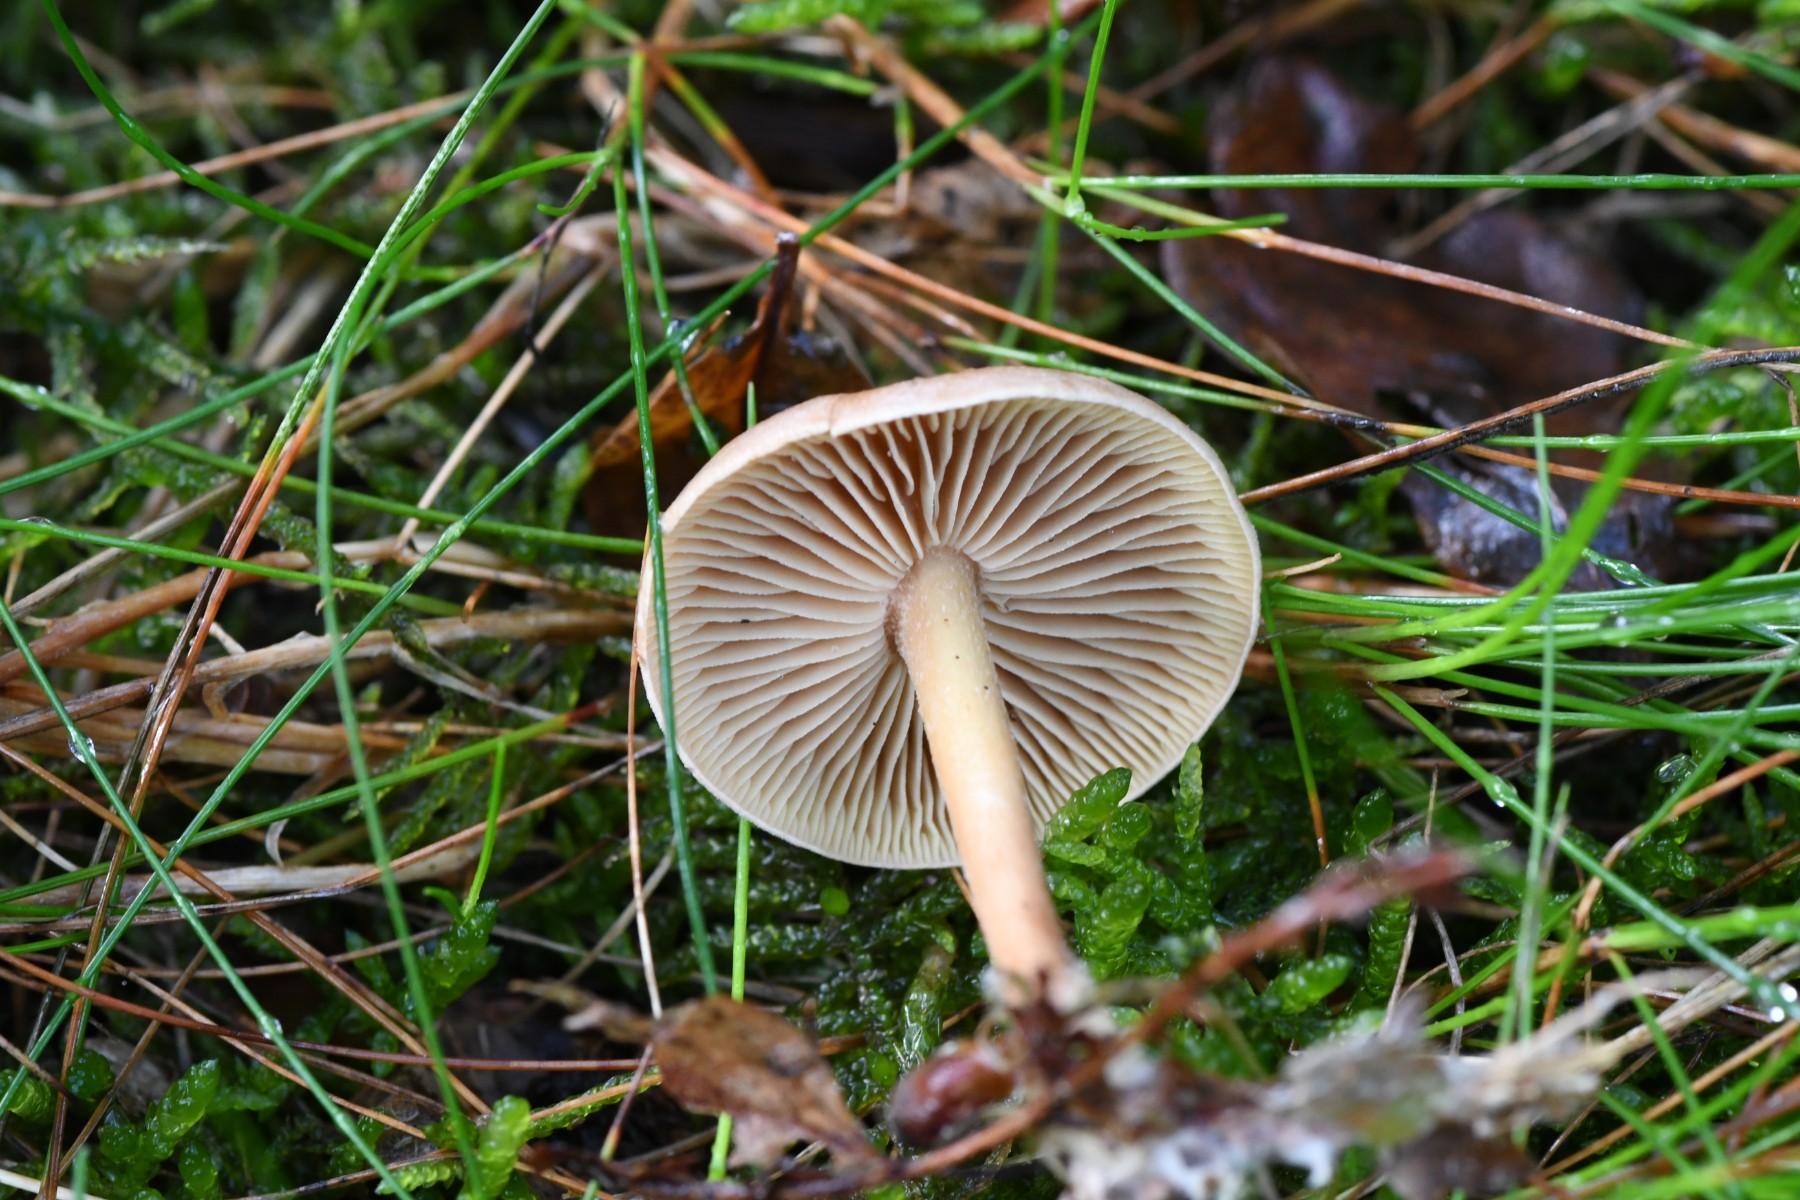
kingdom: Fungi
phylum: Basidiomycota
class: Agaricomycetes
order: Agaricales
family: Omphalotaceae
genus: Collybiopsis
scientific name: Collybiopsis peronata
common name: bestøvlet fladhat
